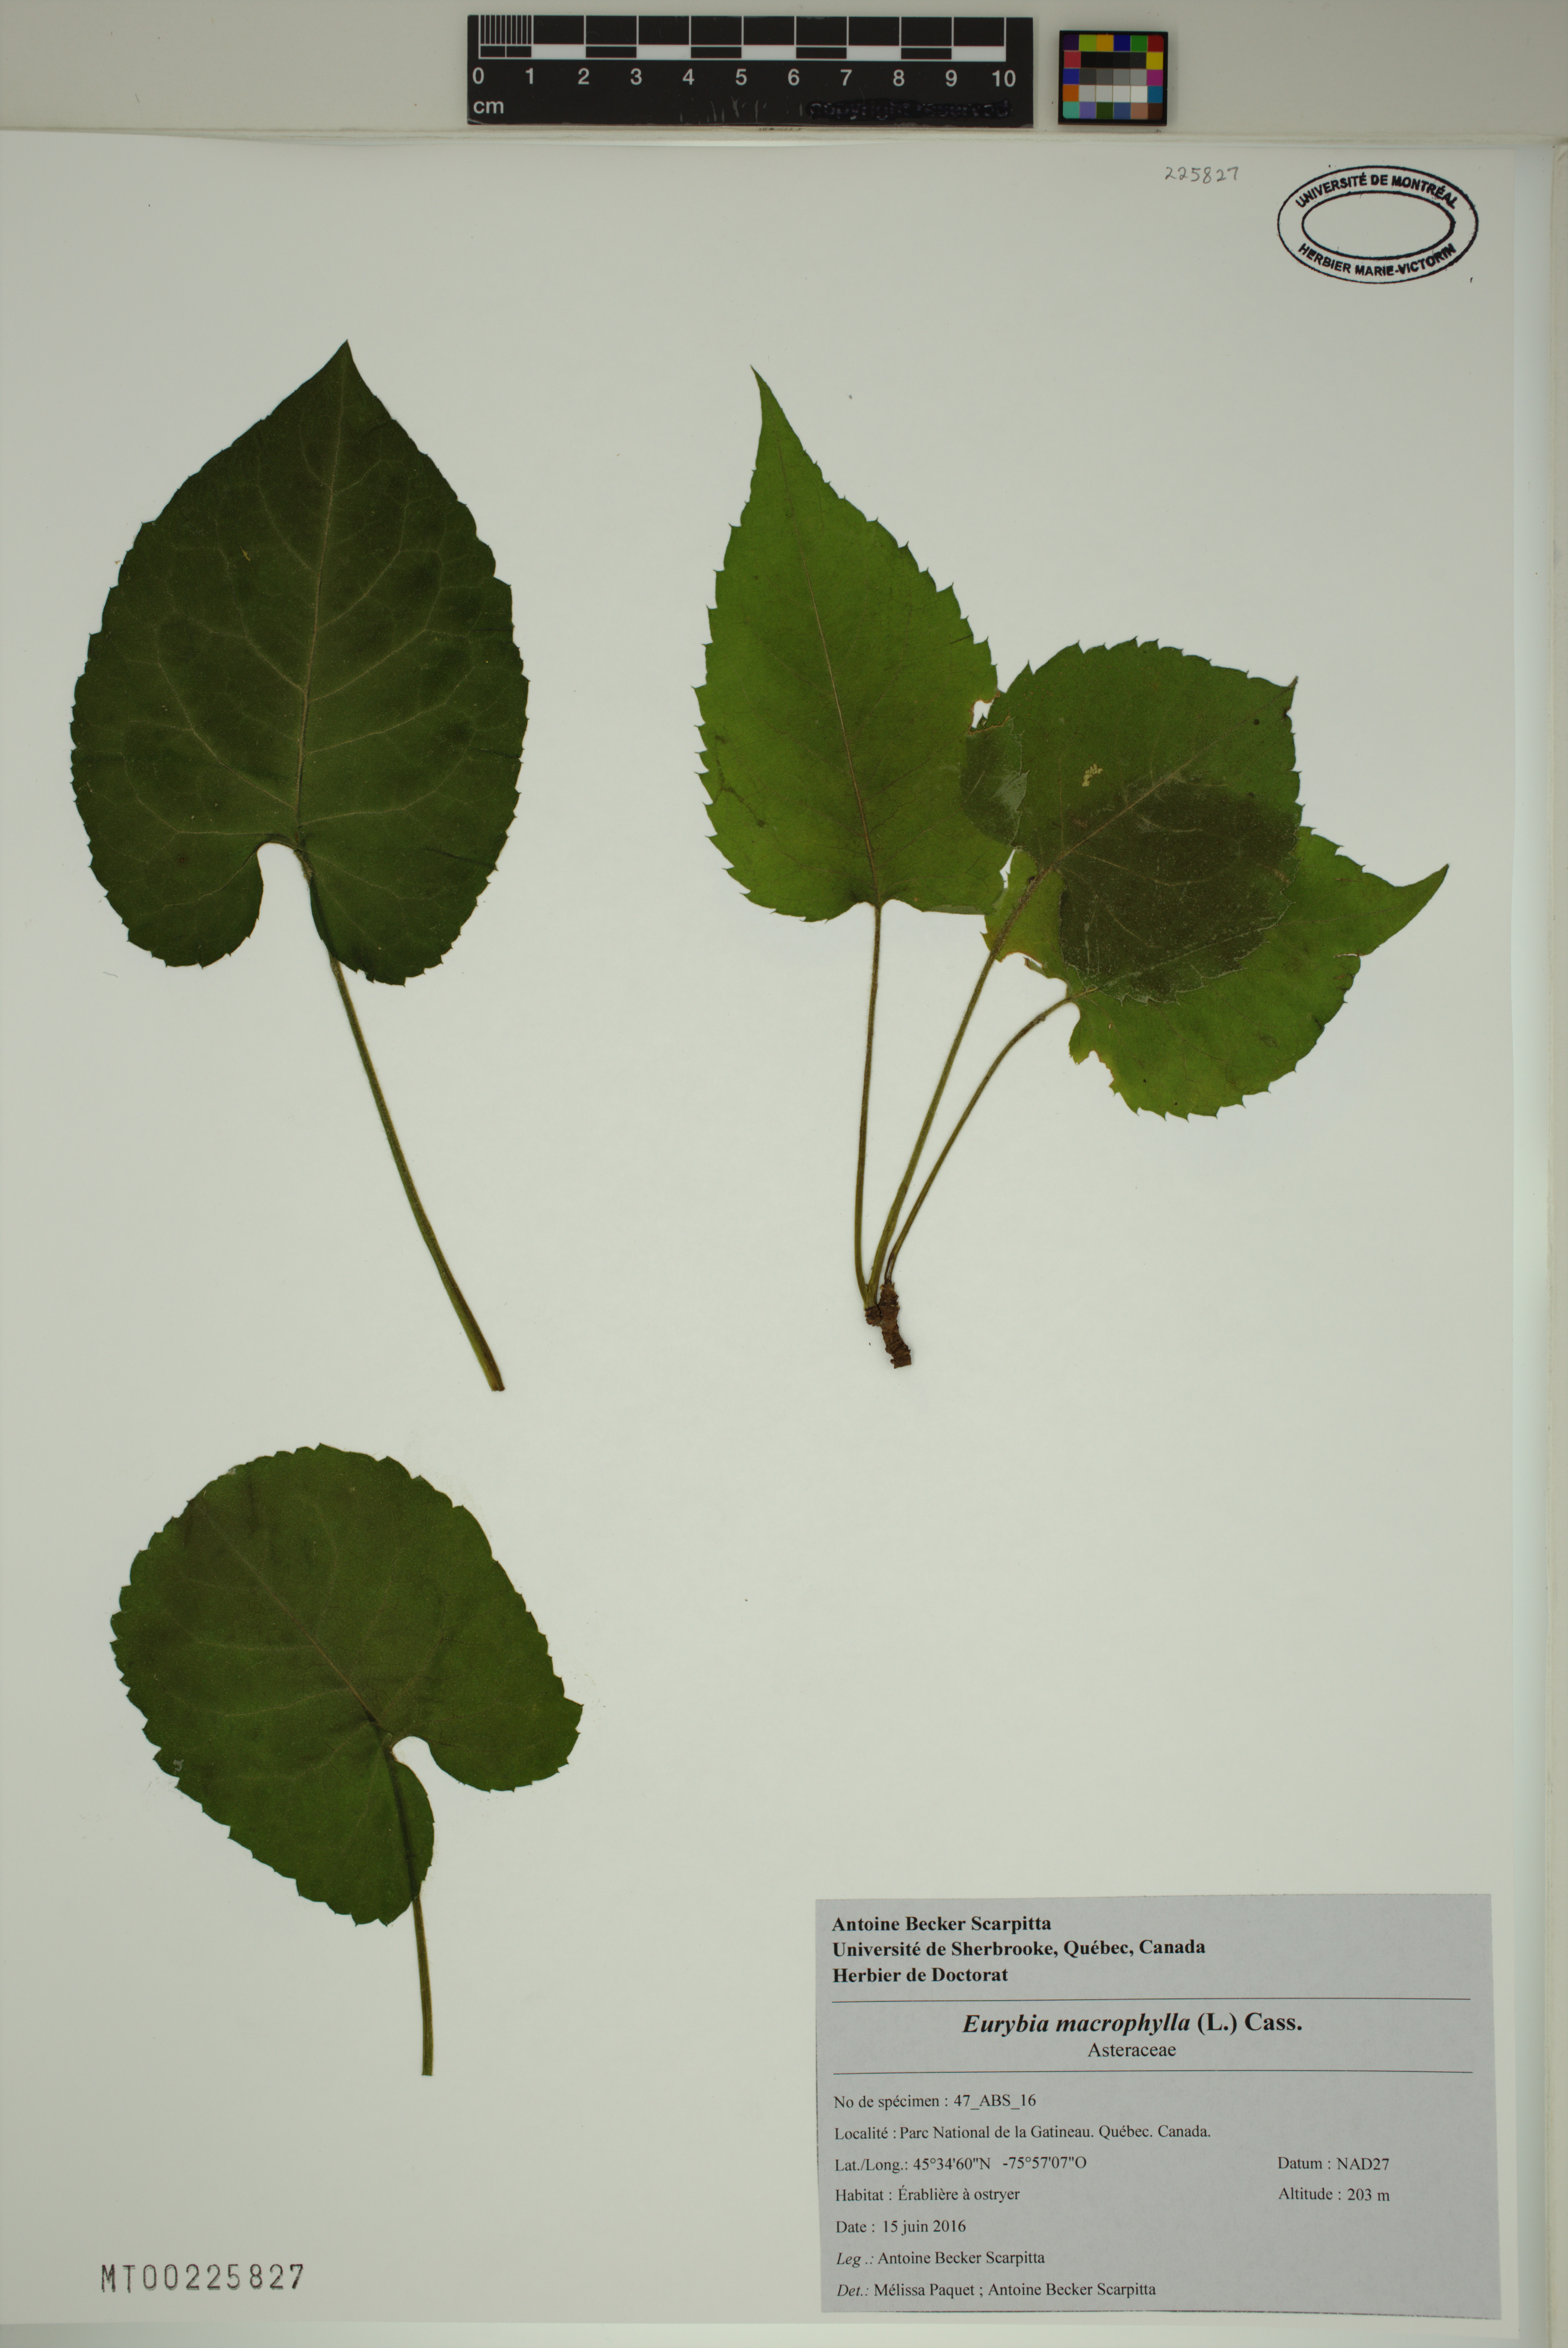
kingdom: Plantae
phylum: Tracheophyta
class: Magnoliopsida
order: Asterales
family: Asteraceae
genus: Eurybia
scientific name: Eurybia macrophylla
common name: Big-leaved aster
